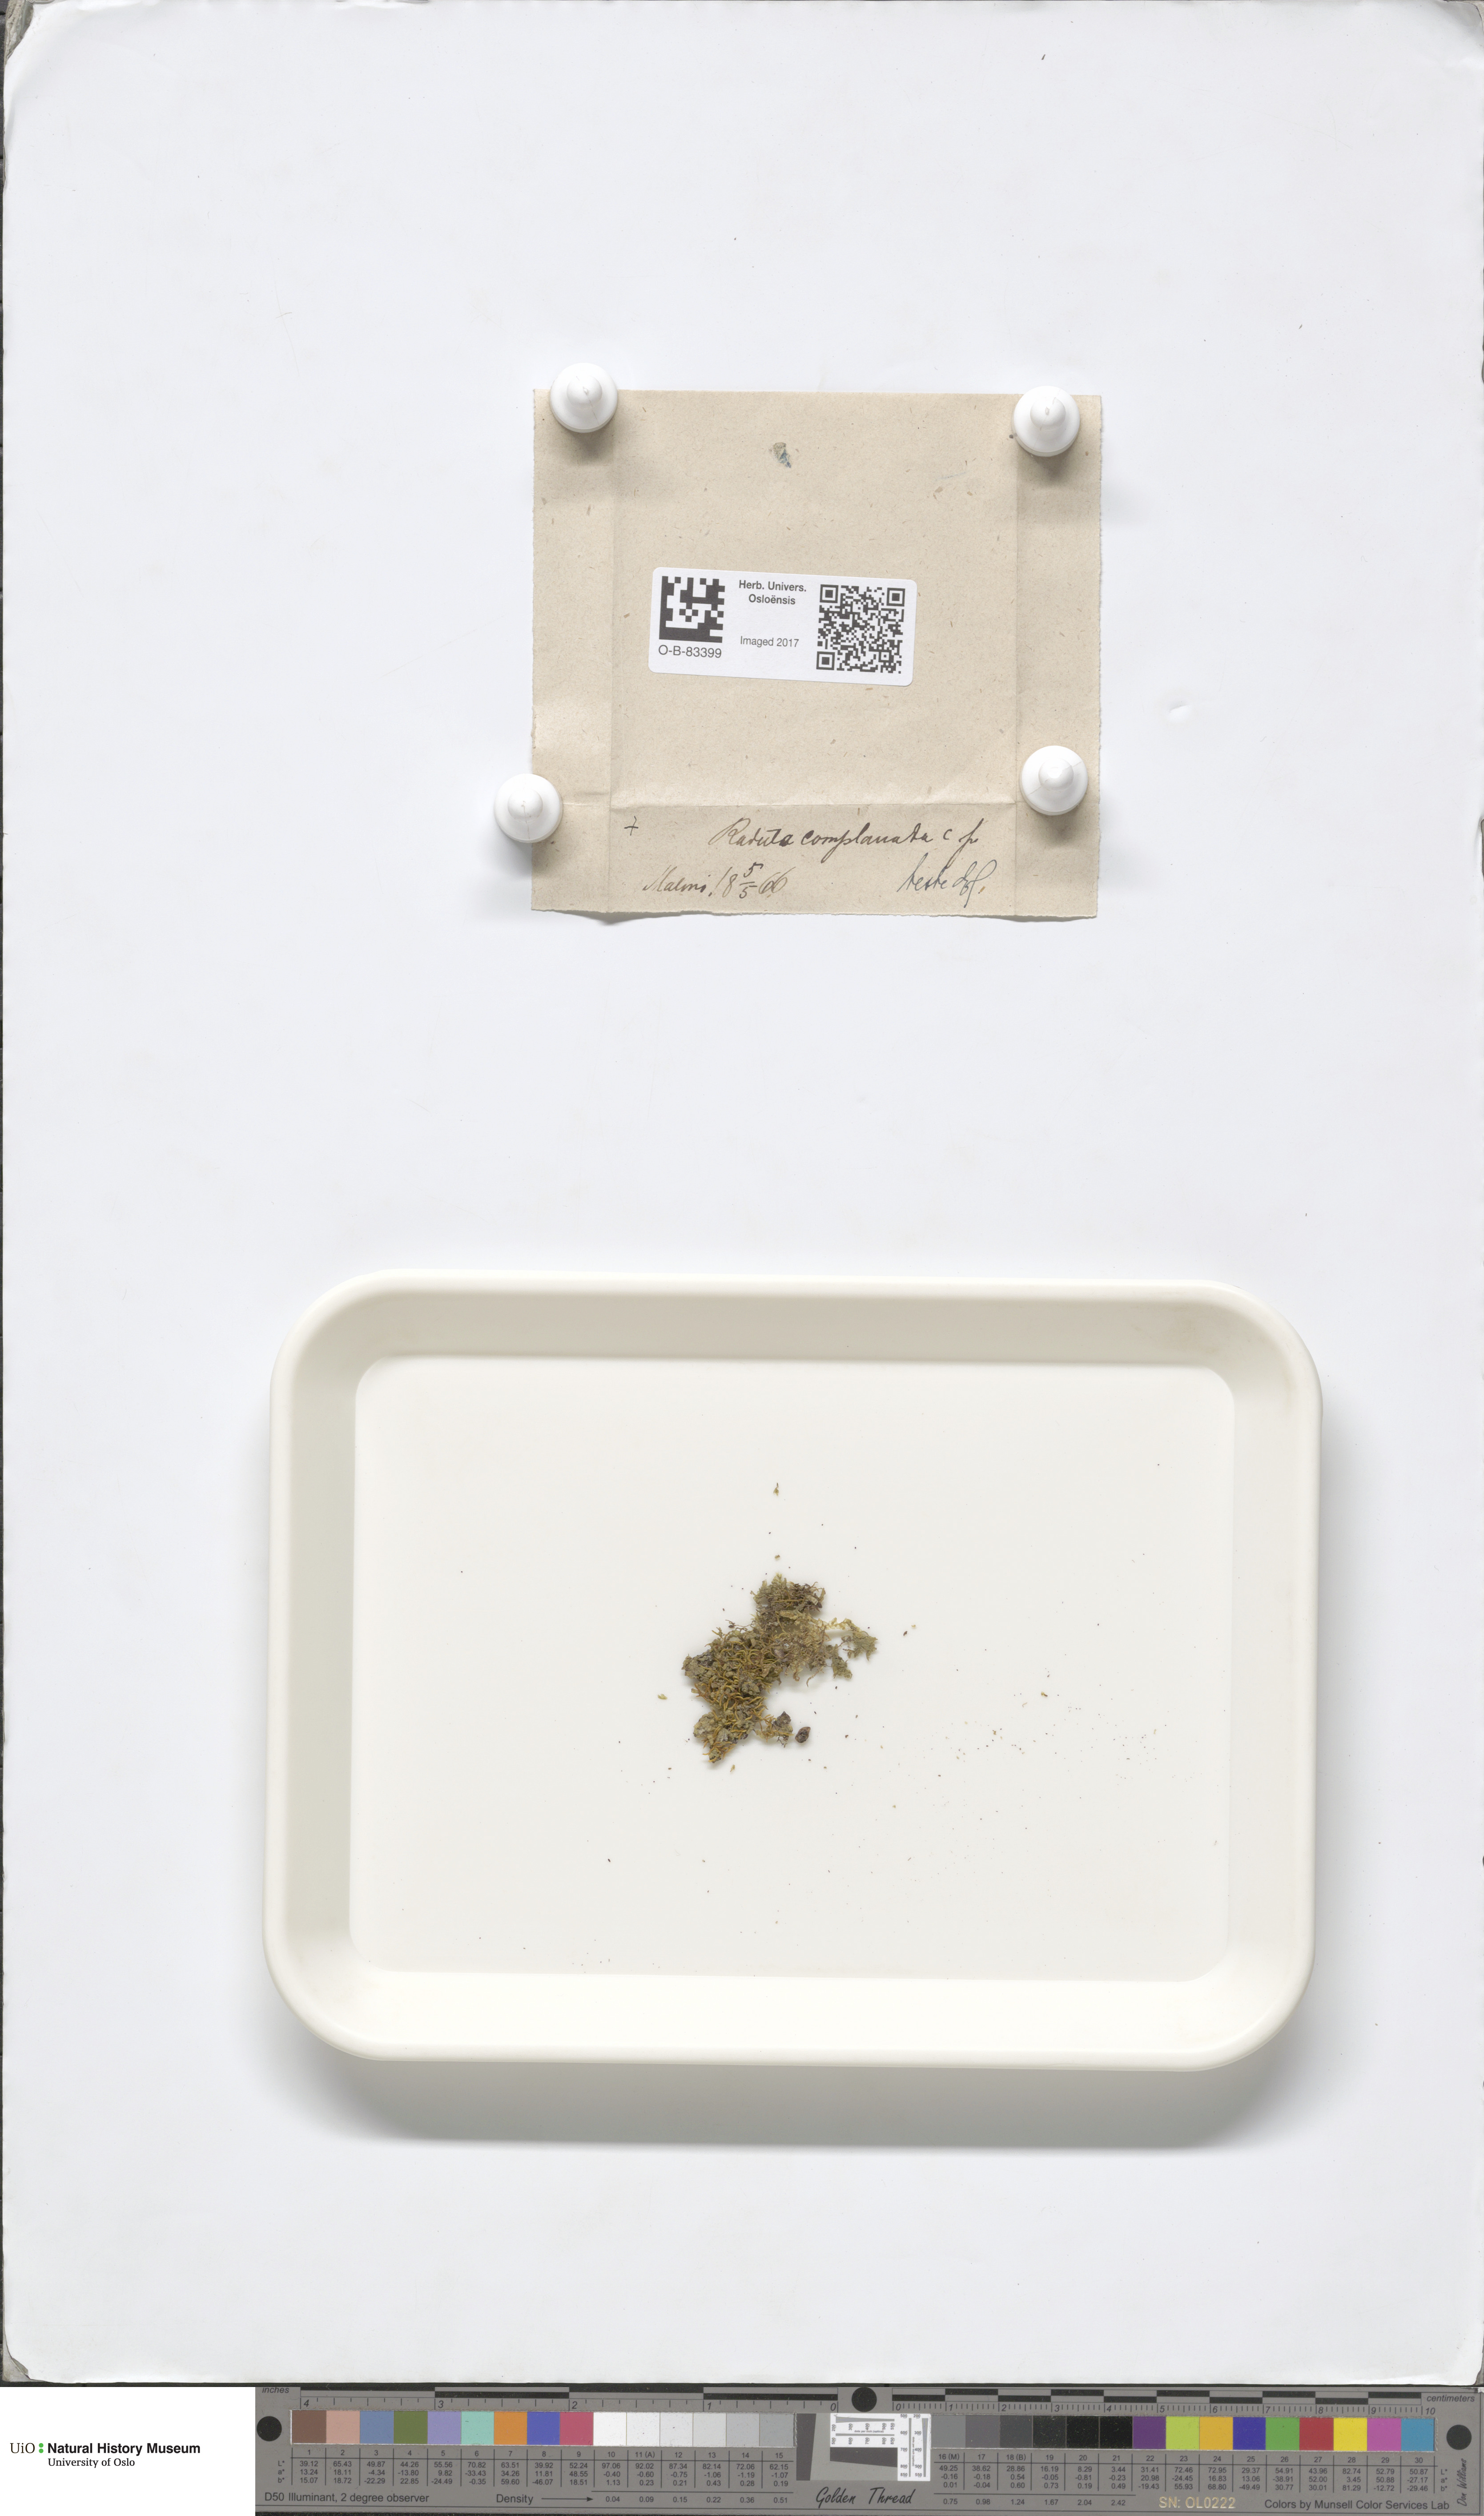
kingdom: Plantae
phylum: Marchantiophyta
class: Jungermanniopsida
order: Porellales
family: Radulaceae
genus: Radula
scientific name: Radula complanata
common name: Flat-leaved scalewort
